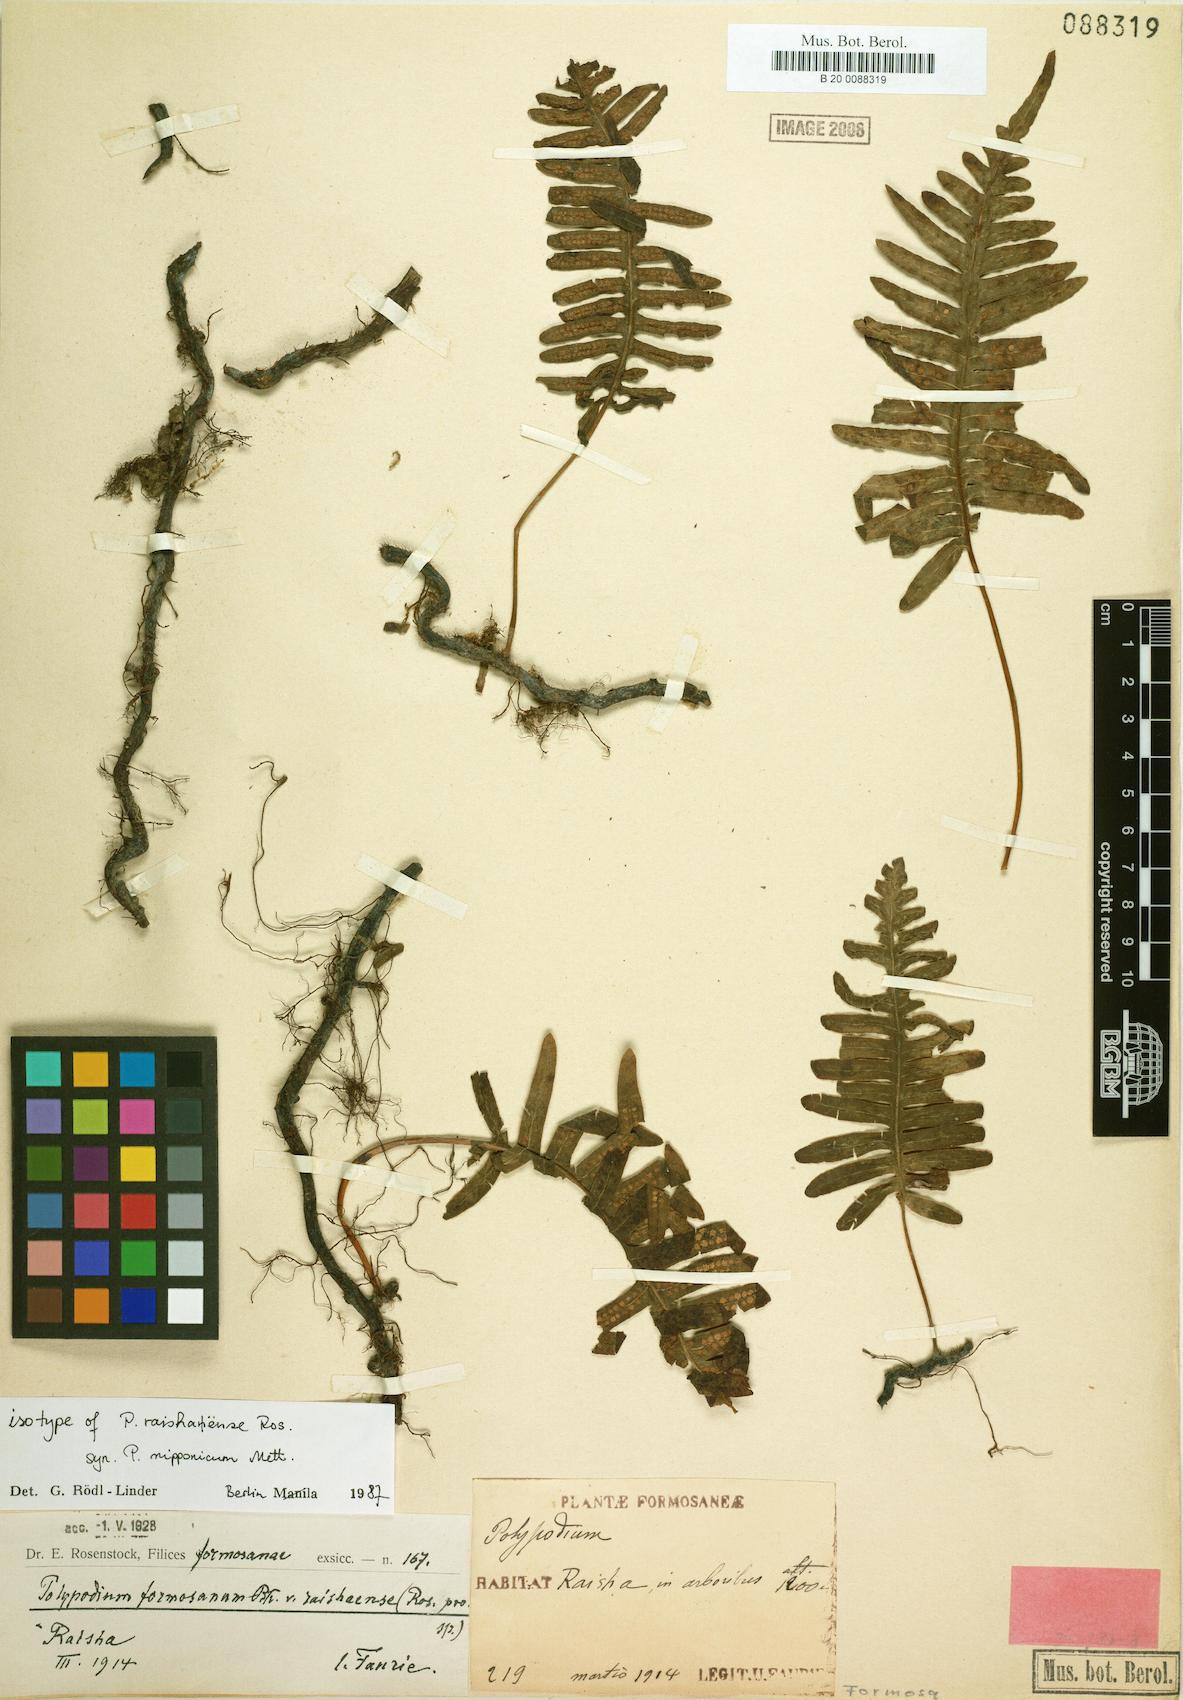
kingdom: Plantae
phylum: Tracheophyta
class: Polypodiopsida
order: Polypodiales
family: Polypodiaceae
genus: Goniophlebium
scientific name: Goniophlebium raishaense
